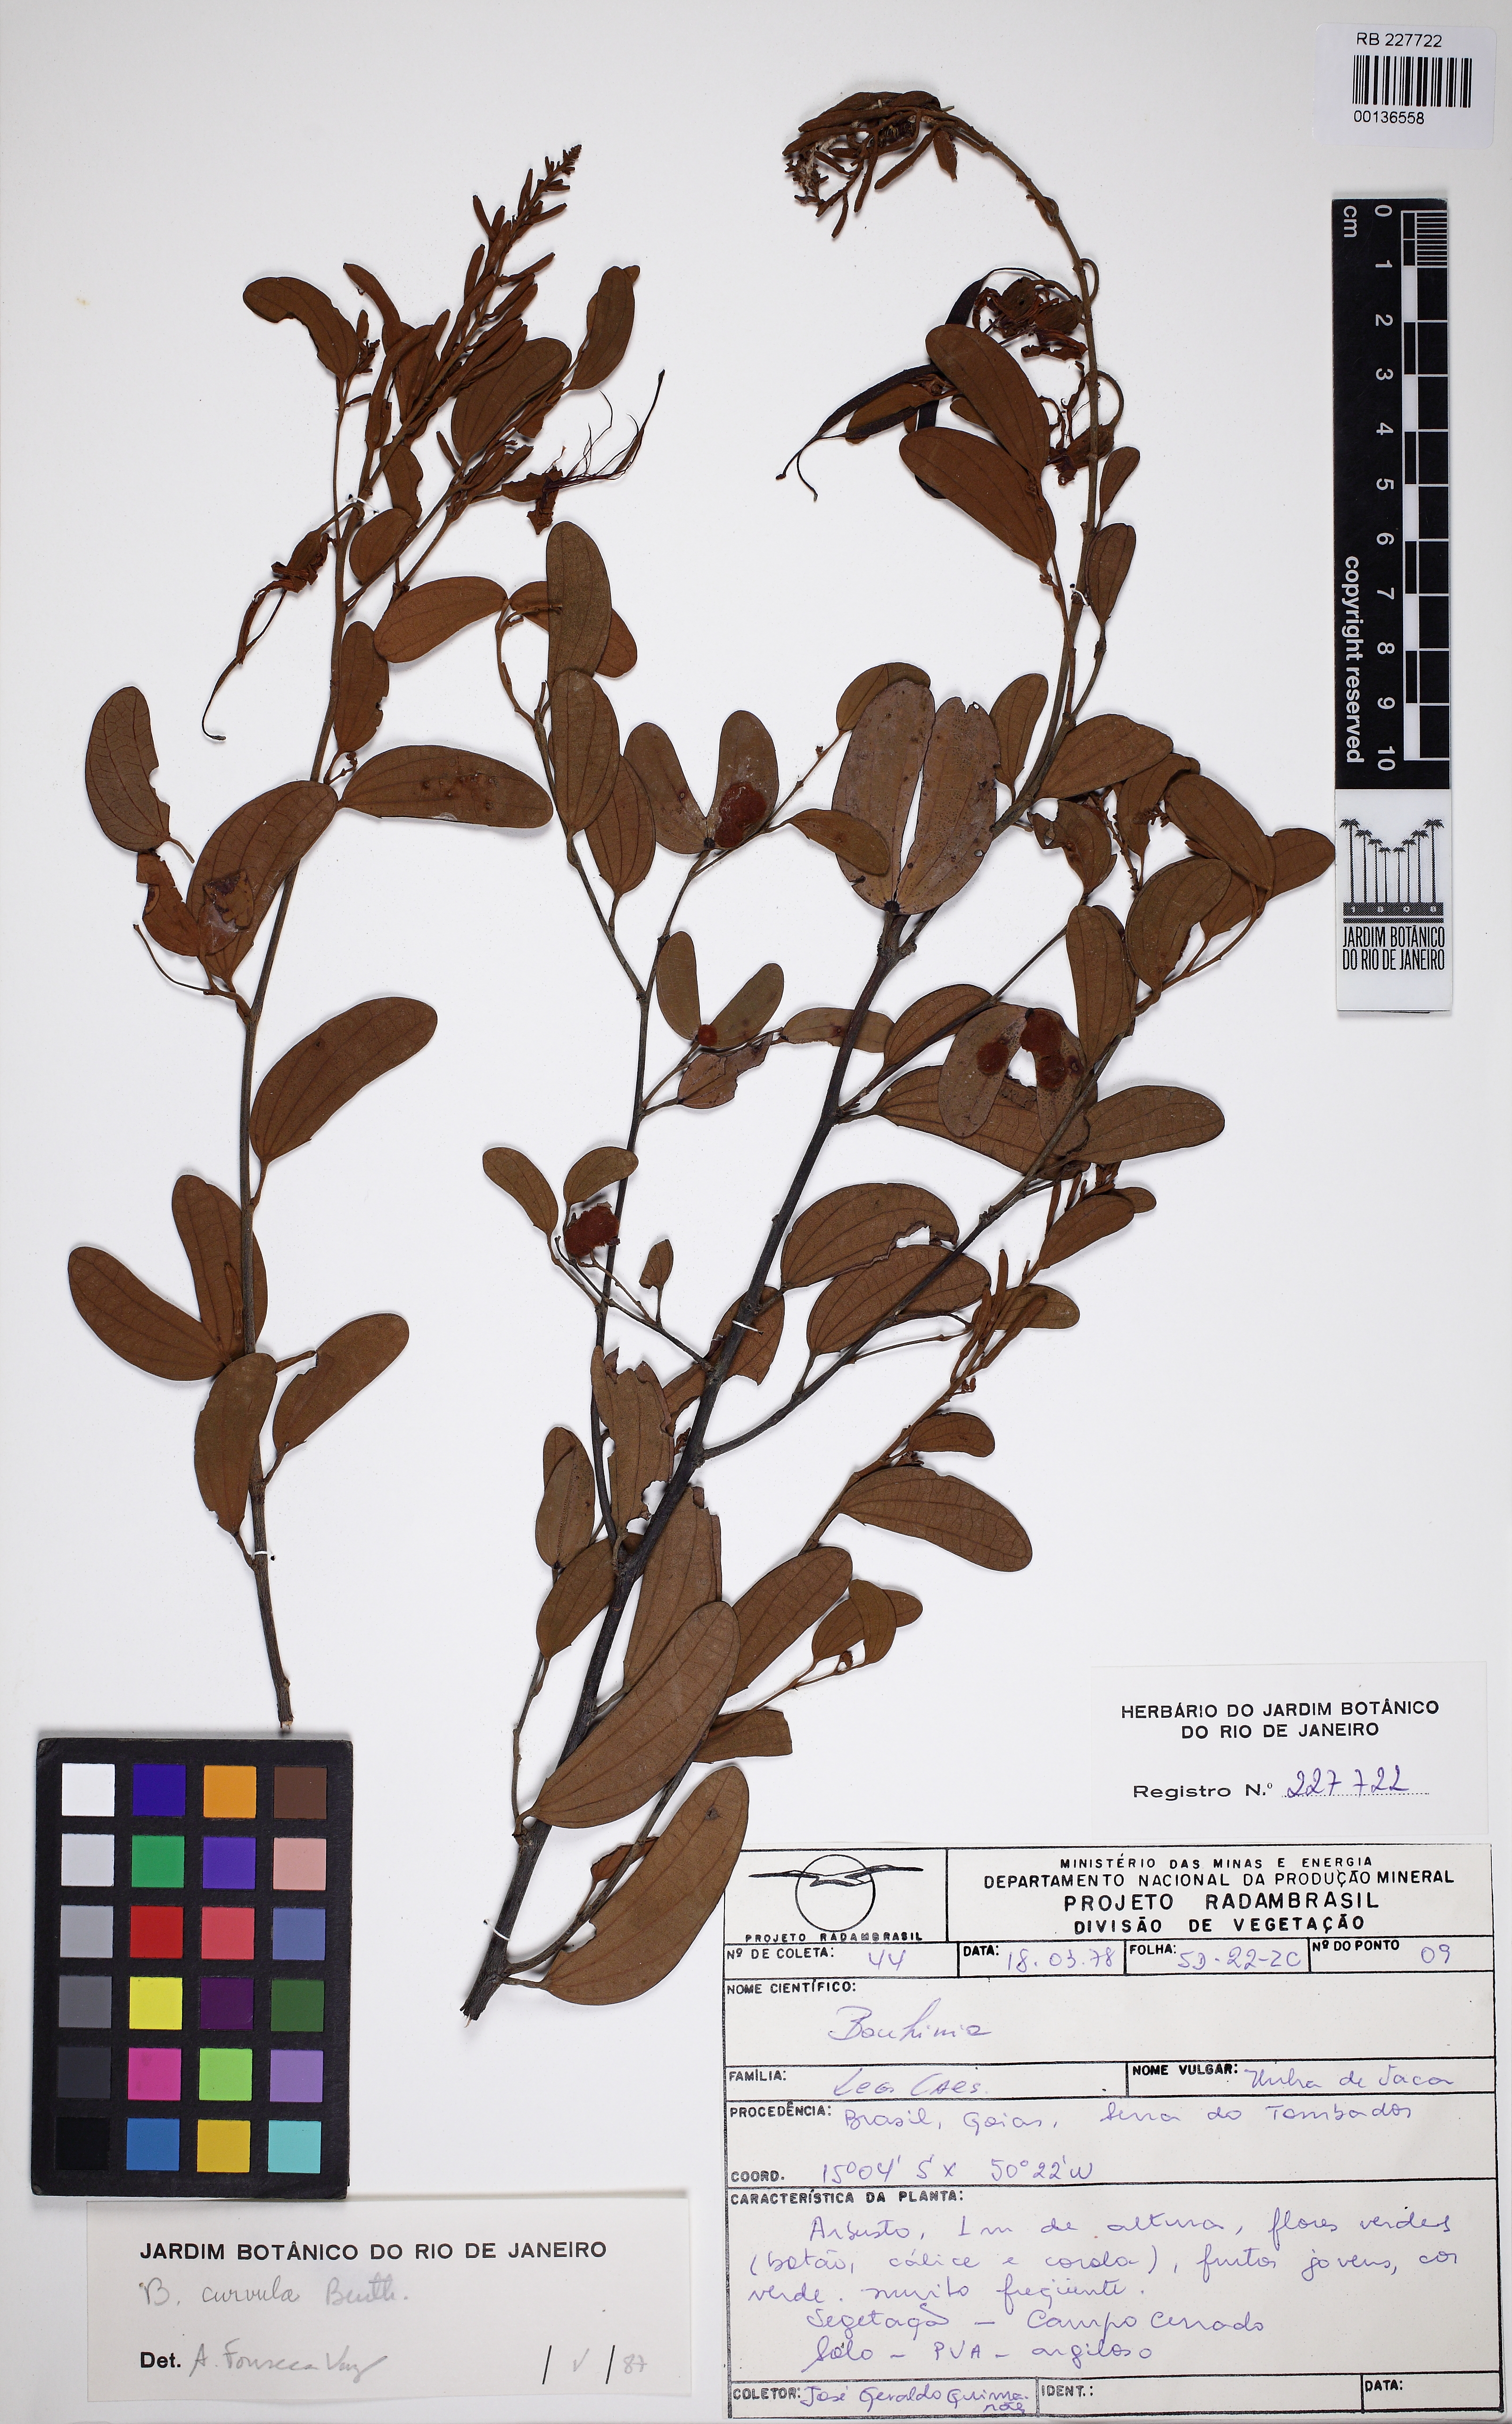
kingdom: Plantae
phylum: Tracheophyta
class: Magnoliopsida
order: Fabales
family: Fabaceae
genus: Bauhinia
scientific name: Bauhinia curvula
